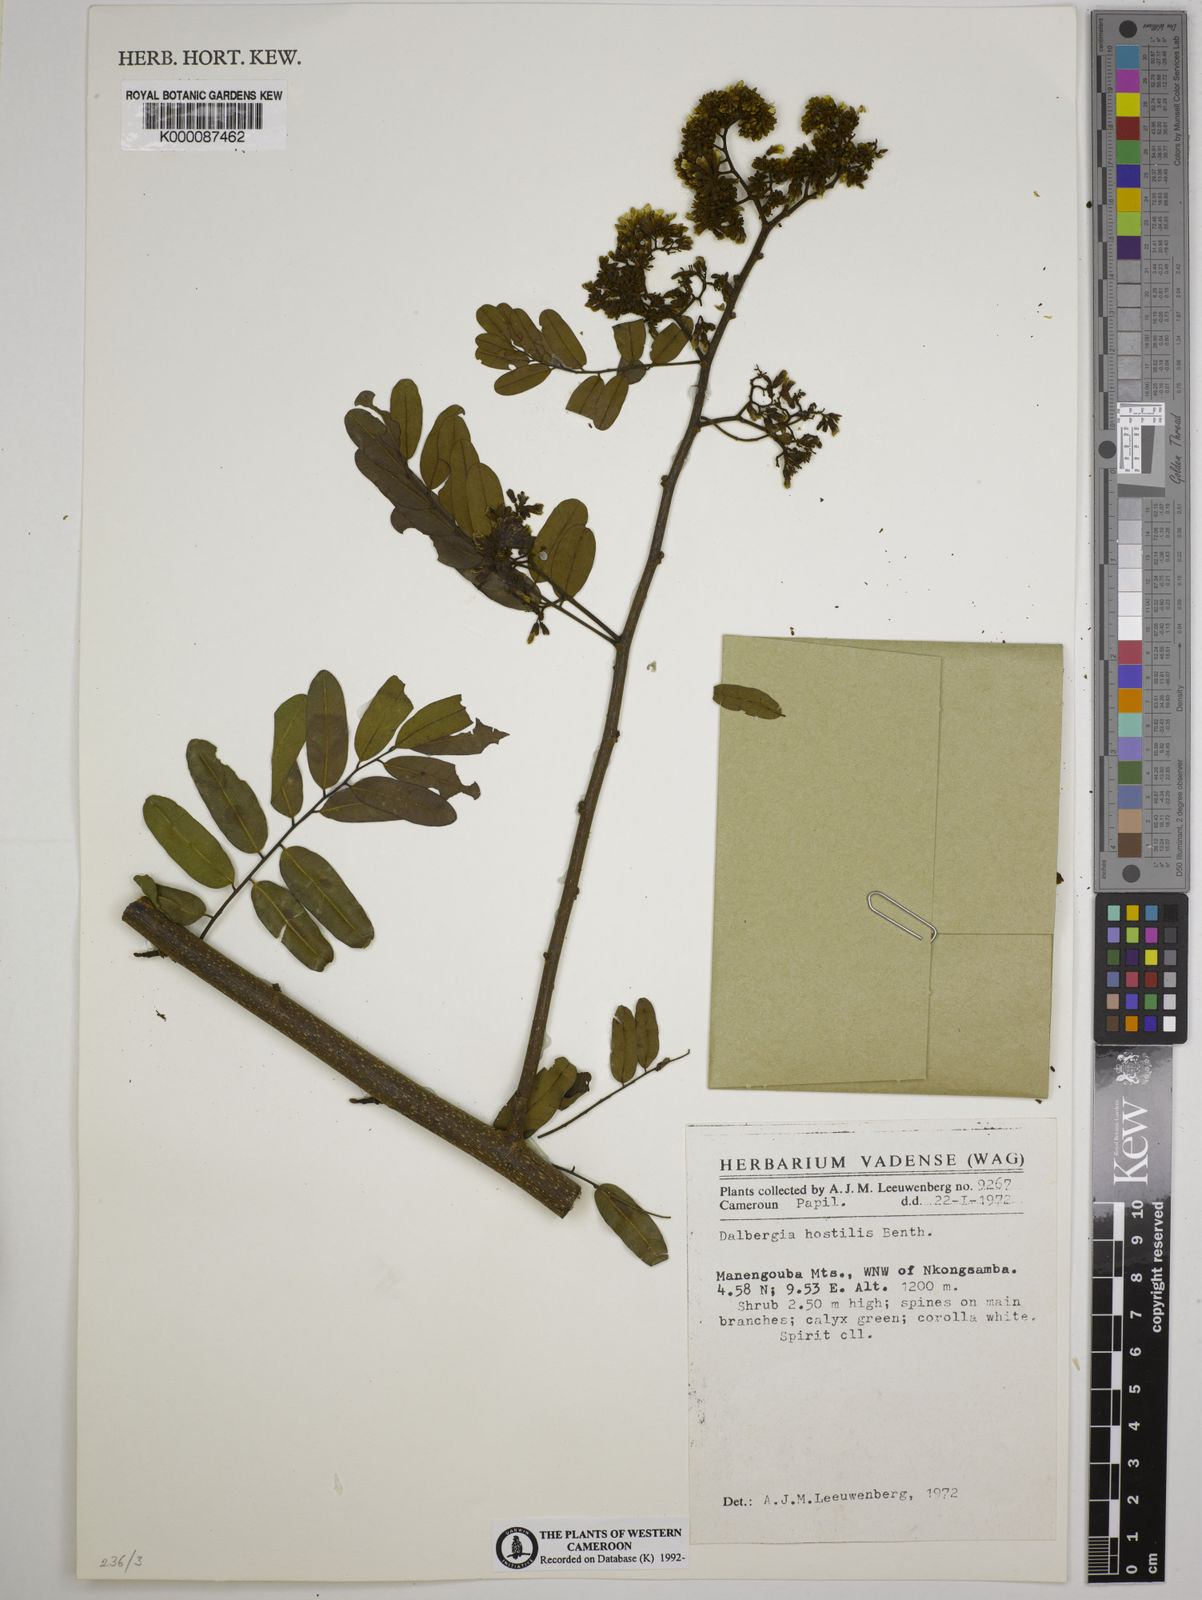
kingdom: Plantae
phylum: Tracheophyta
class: Magnoliopsida
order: Fabales
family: Fabaceae
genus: Dalbergia
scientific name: Dalbergia hostilis
